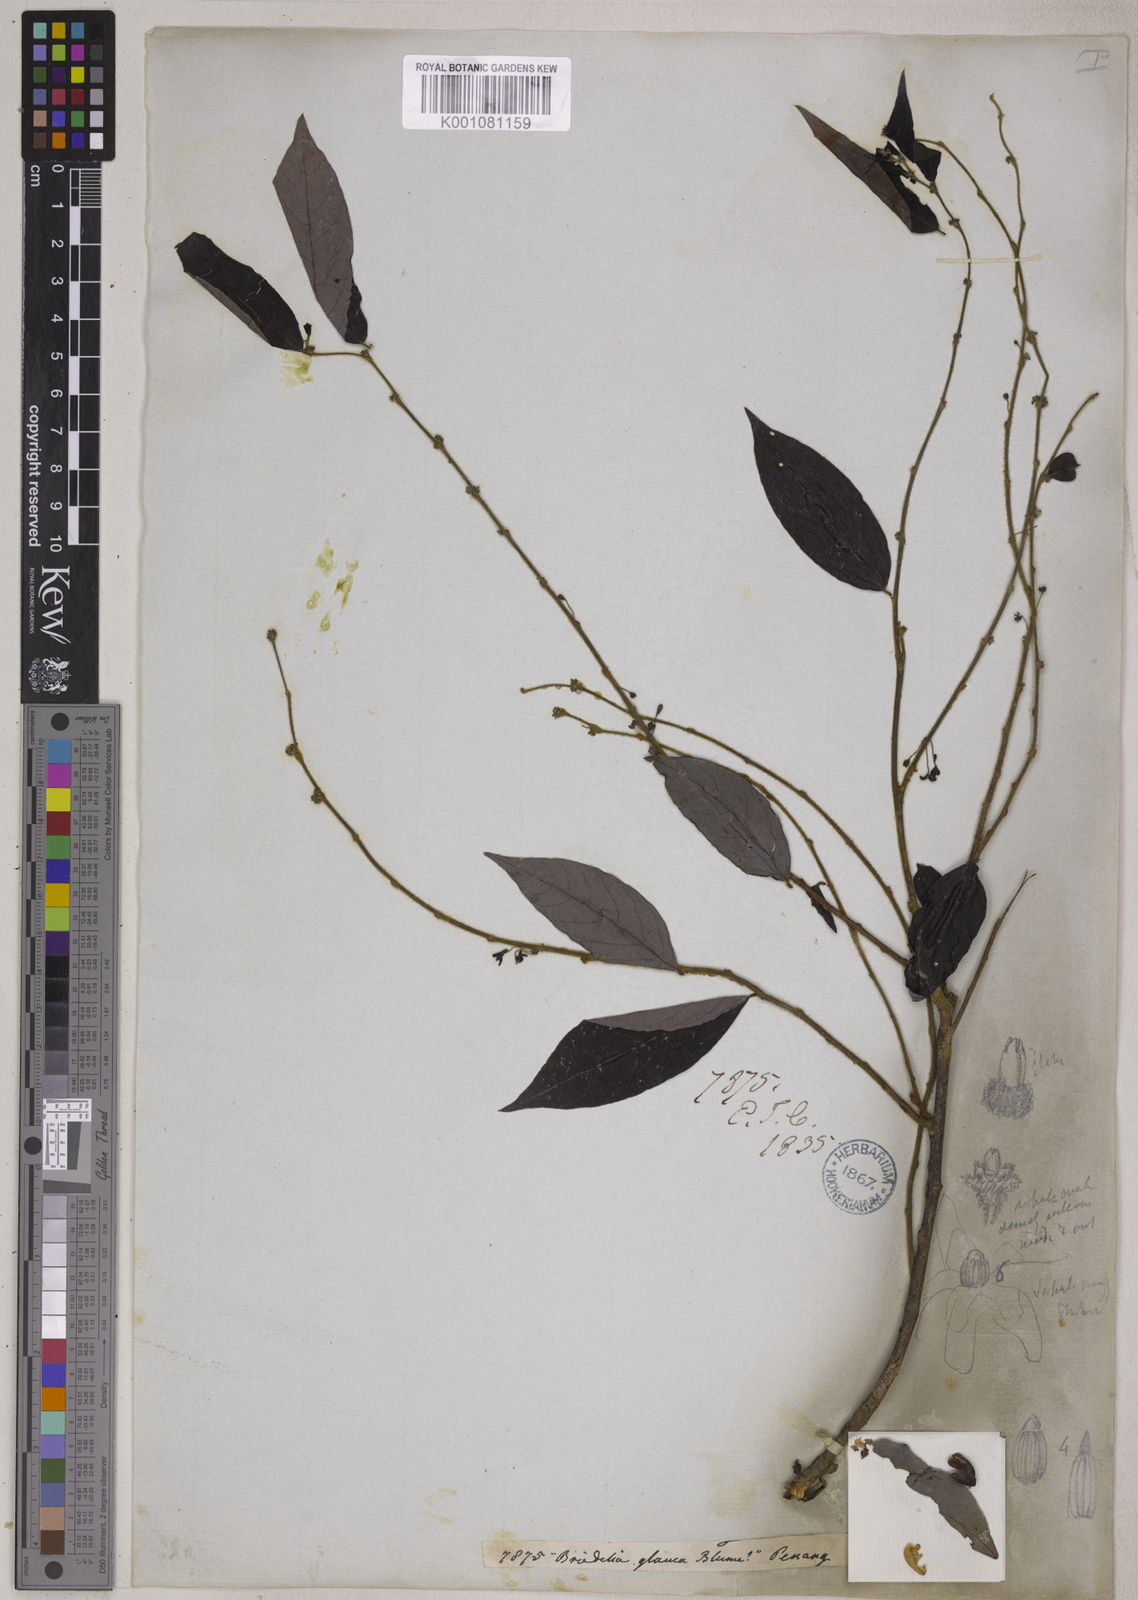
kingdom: Plantae
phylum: Tracheophyta
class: Magnoliopsida
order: Malpighiales
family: Phyllanthaceae
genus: Glochidion
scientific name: Glochidion rubrum
